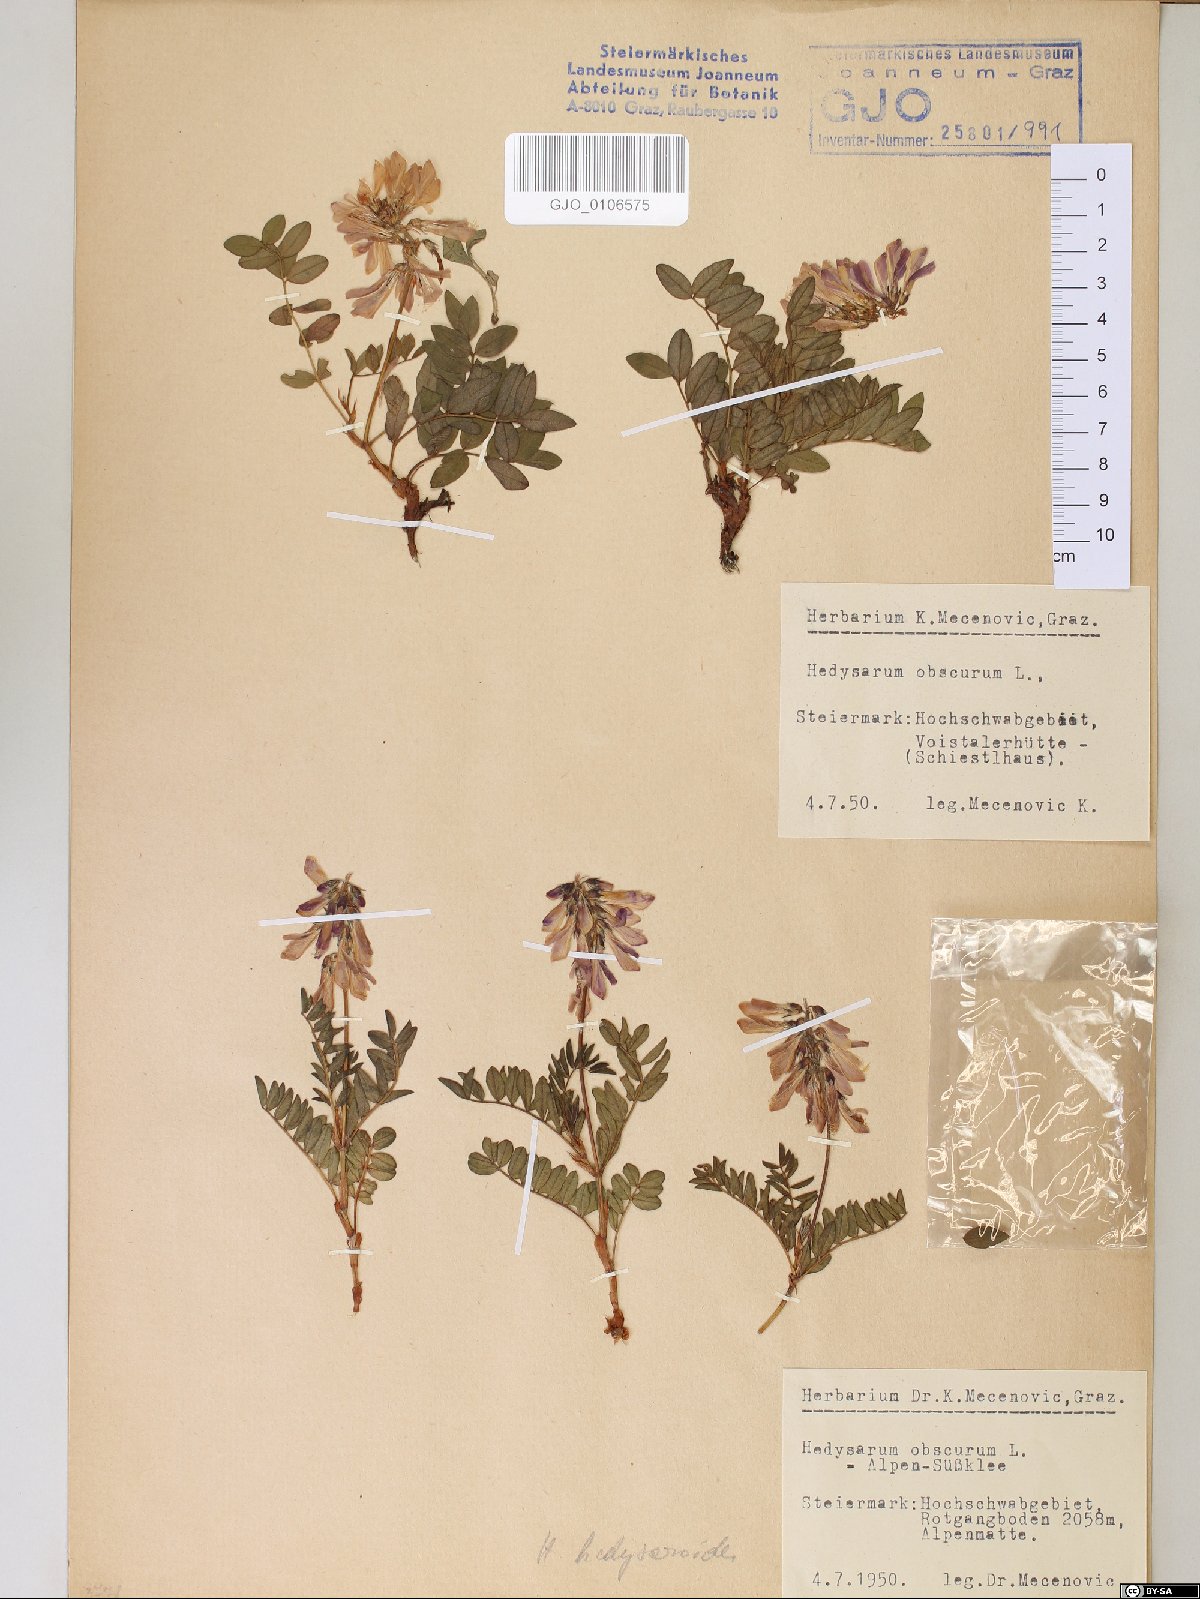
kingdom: Plantae
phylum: Tracheophyta
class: Magnoliopsida
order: Fabales
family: Fabaceae
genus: Hedysarum
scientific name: Hedysarum hedysaroides
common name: Alpine french-honeysuckle
